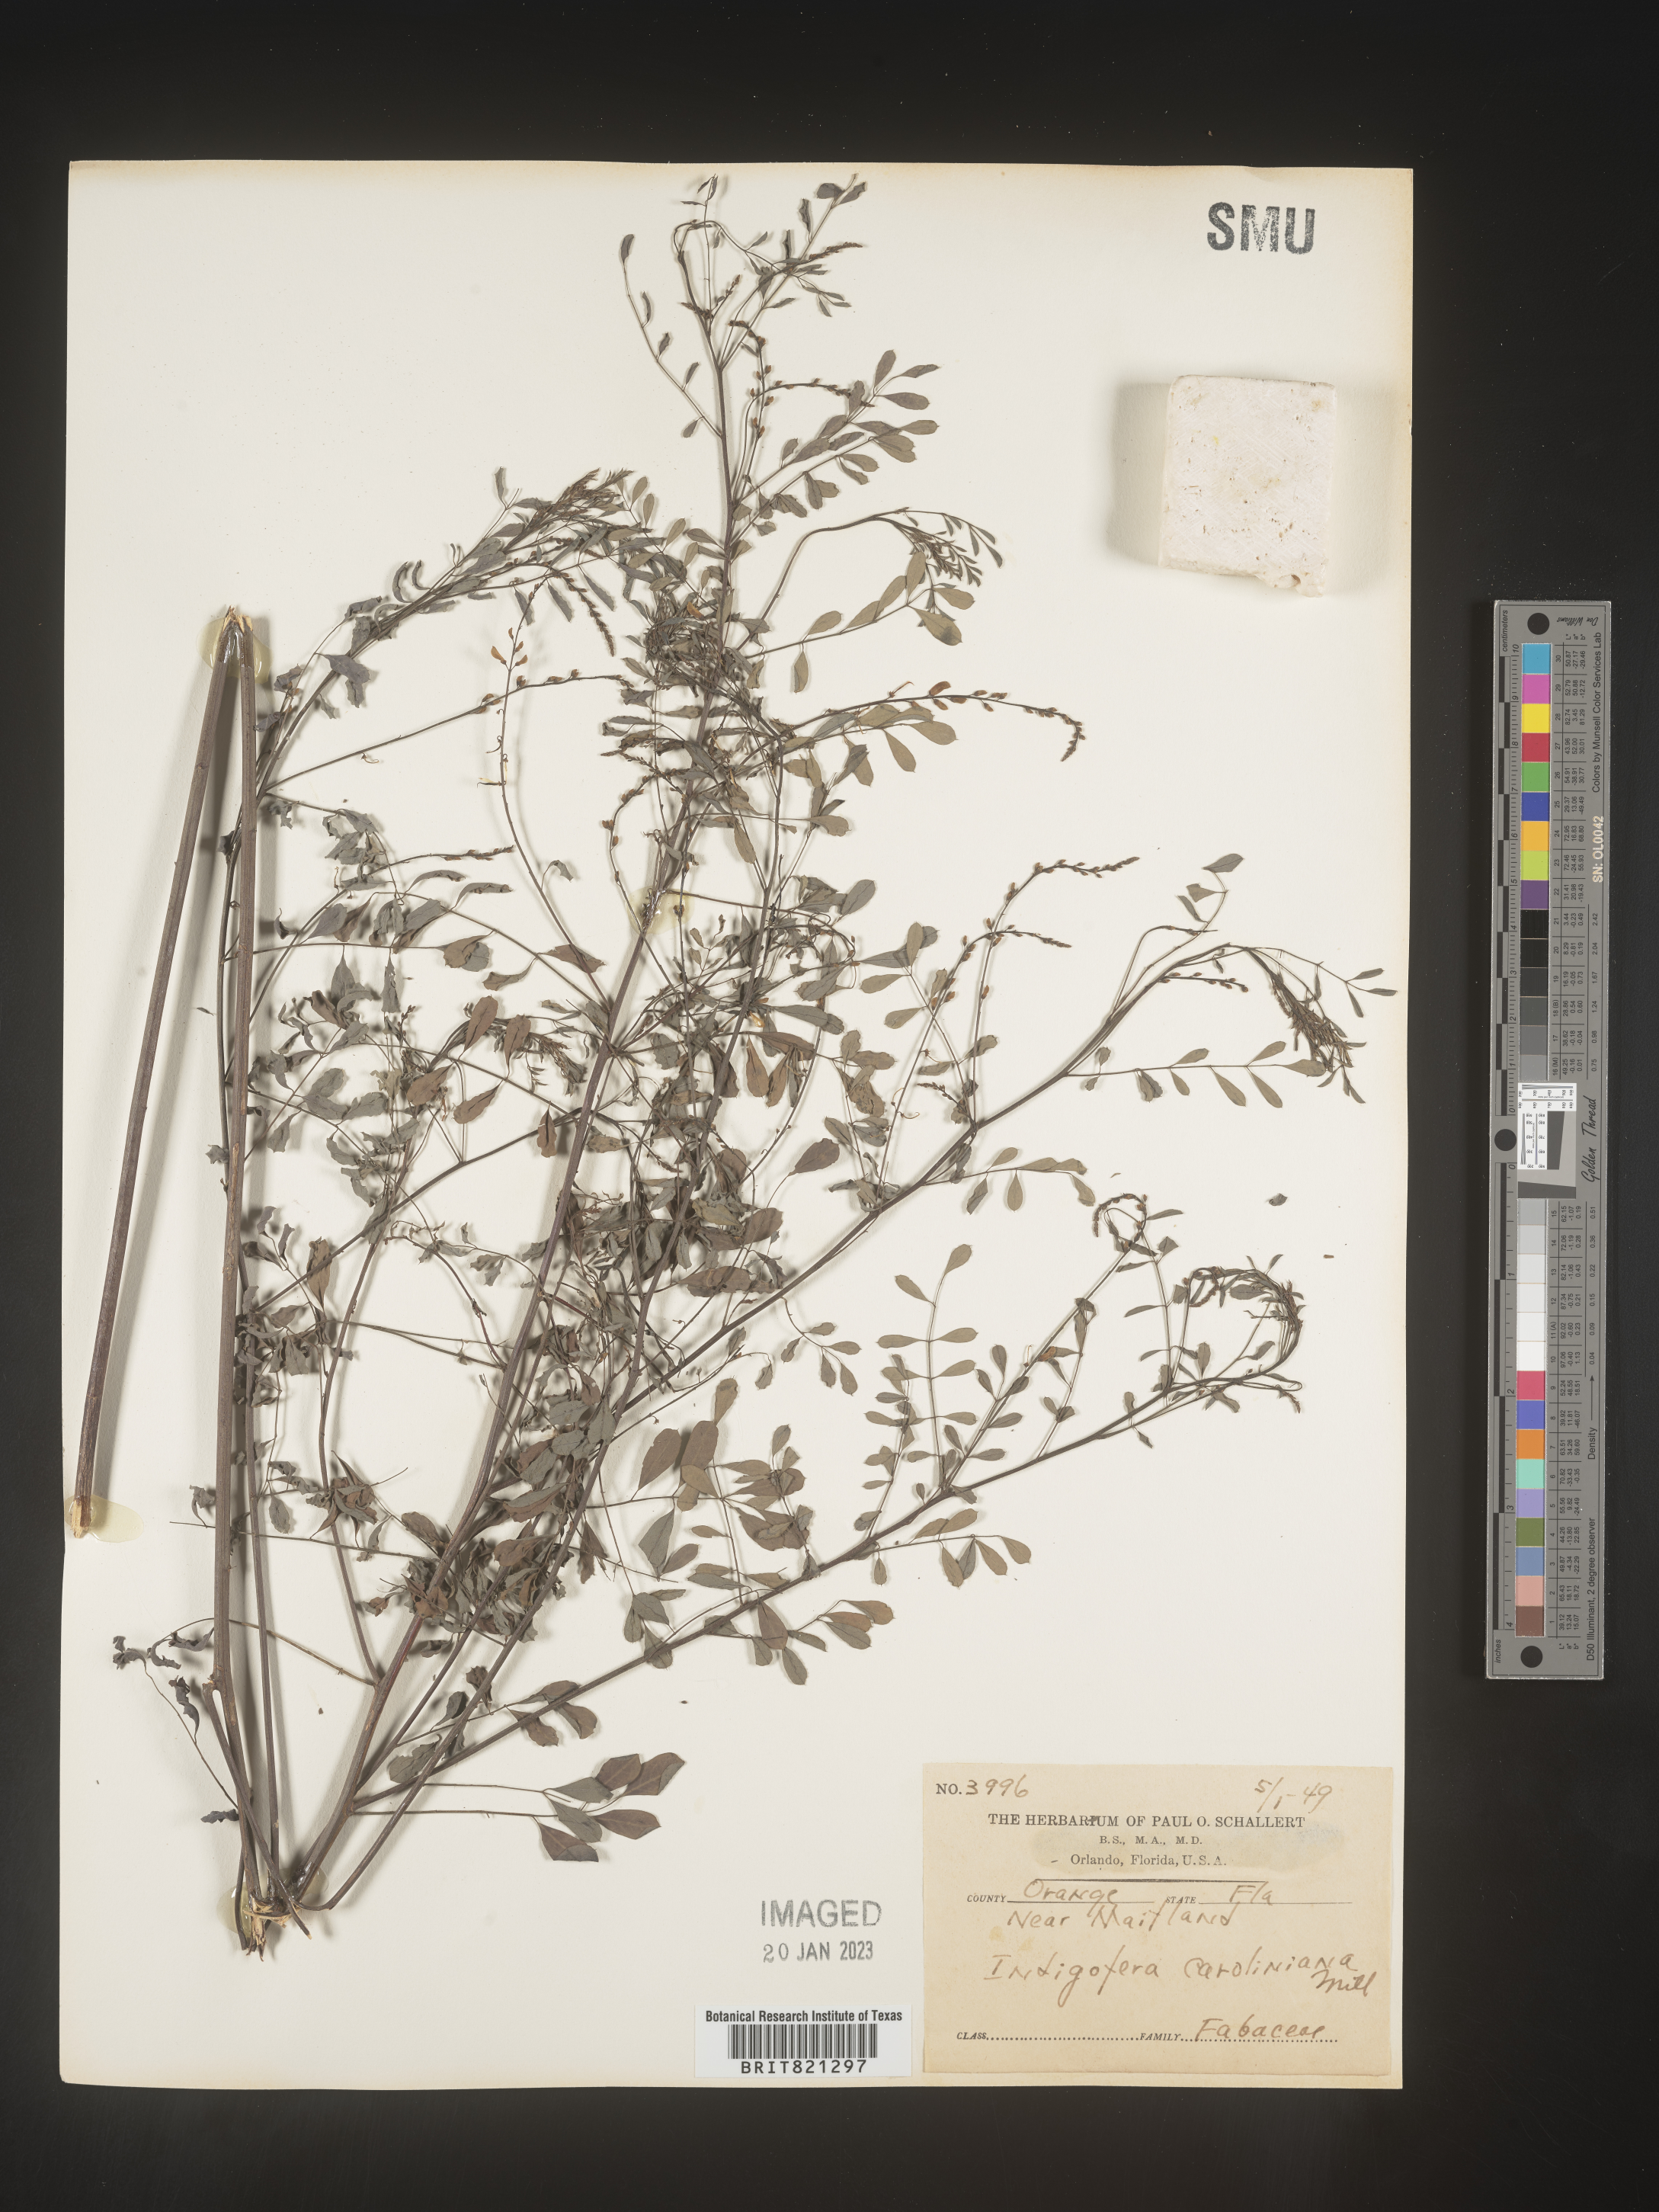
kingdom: Plantae
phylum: Tracheophyta
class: Magnoliopsida
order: Fabales
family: Fabaceae
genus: Indigofera
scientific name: Indigofera
